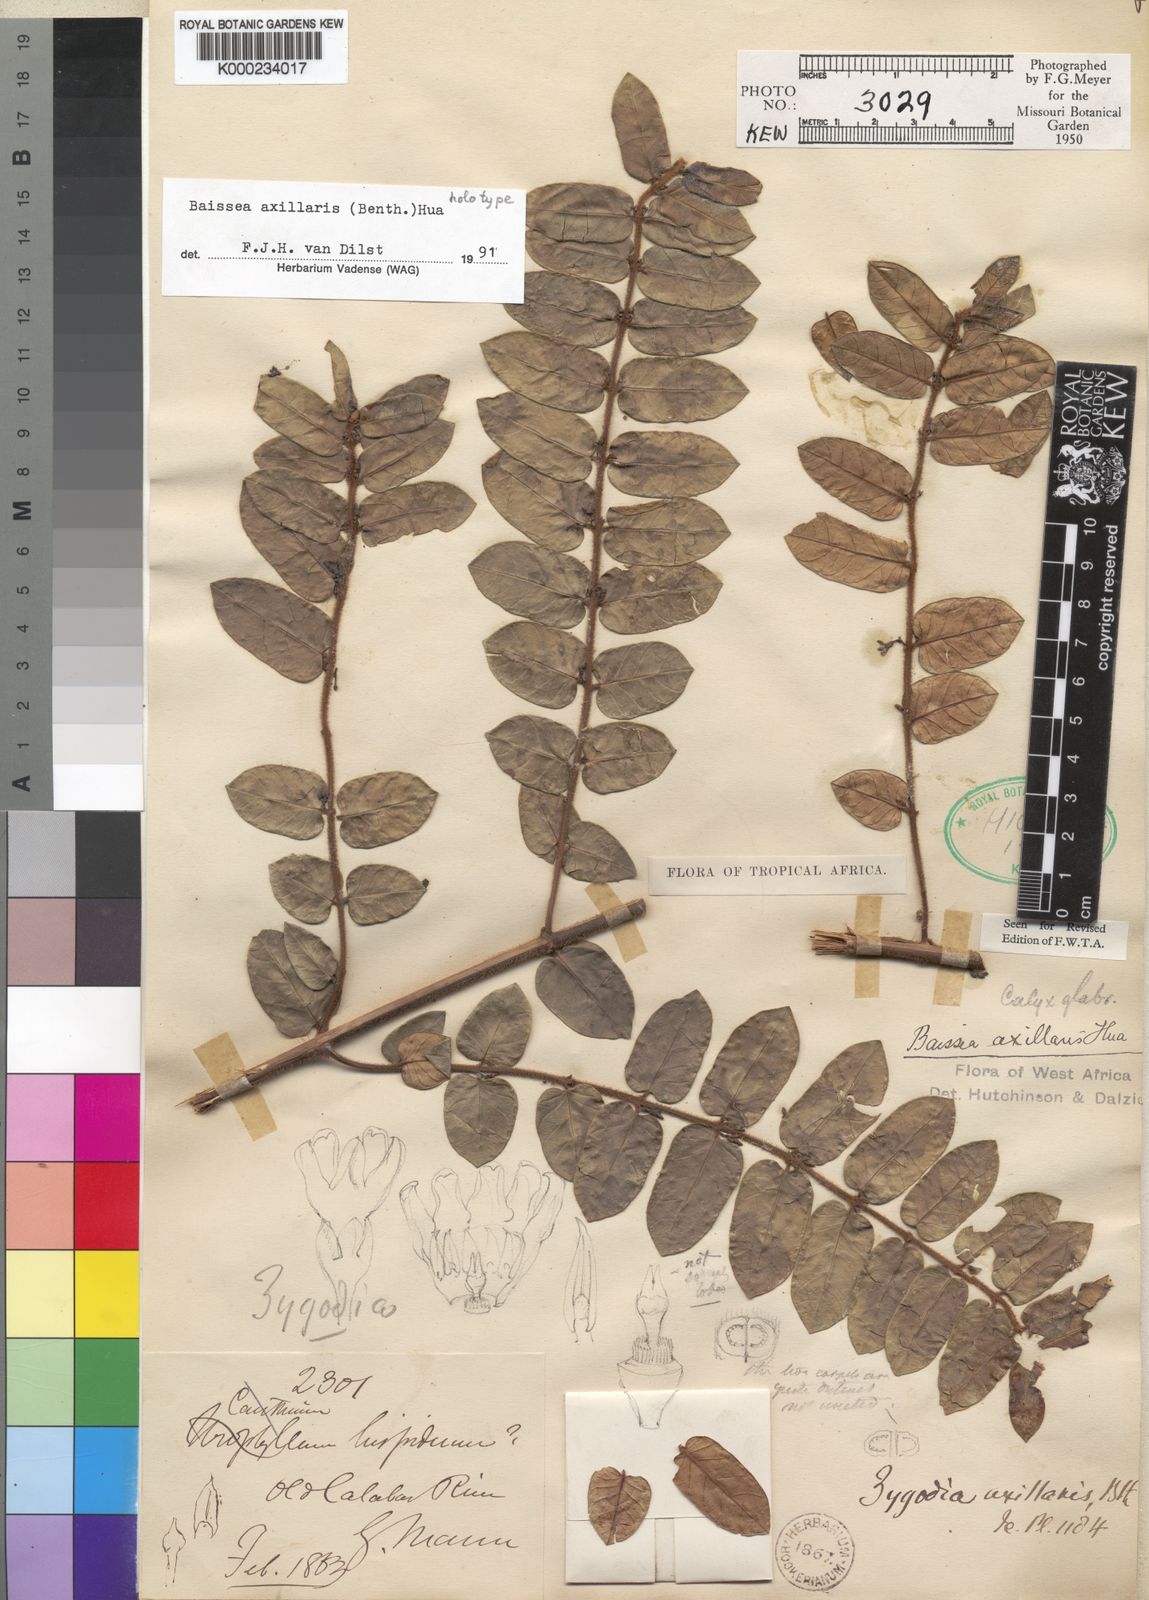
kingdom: Plantae
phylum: Tracheophyta
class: Magnoliopsida
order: Gentianales
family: Apocynaceae
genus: Baissea
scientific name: Baissea axillaris
